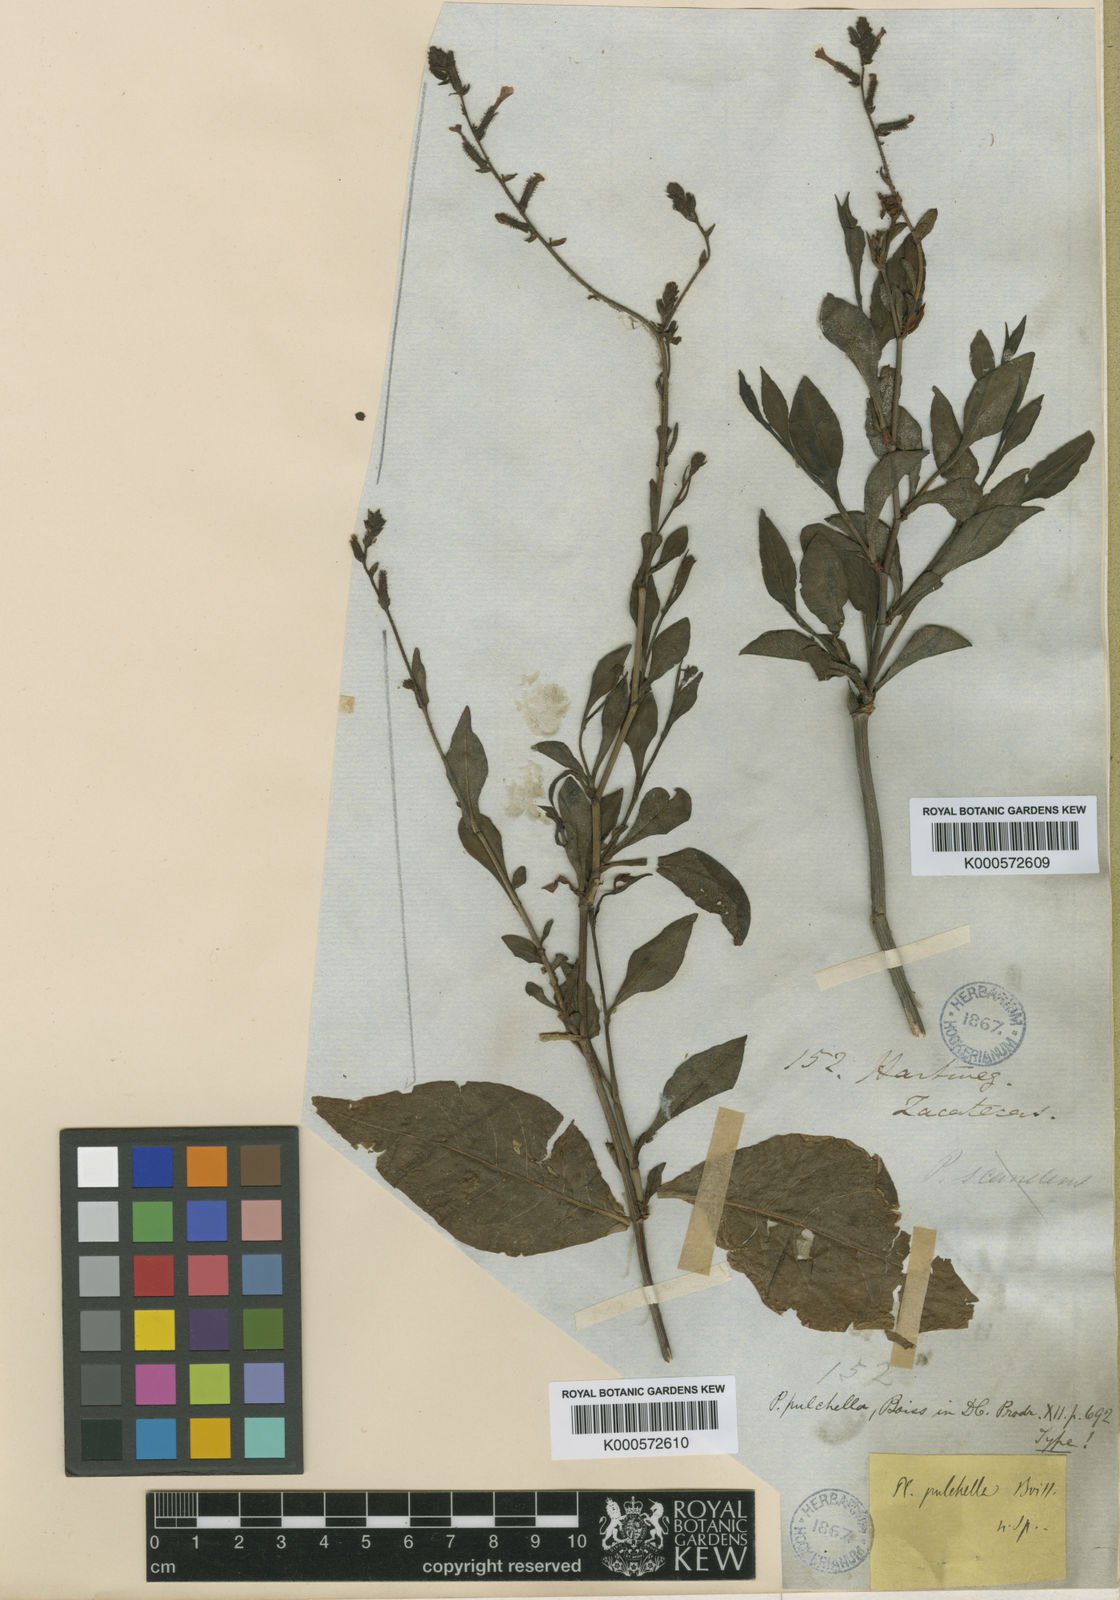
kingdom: Plantae
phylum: Tracheophyta
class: Magnoliopsida
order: Caryophyllales
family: Plumbaginaceae
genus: Plumbago
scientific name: Plumbago pulchella
